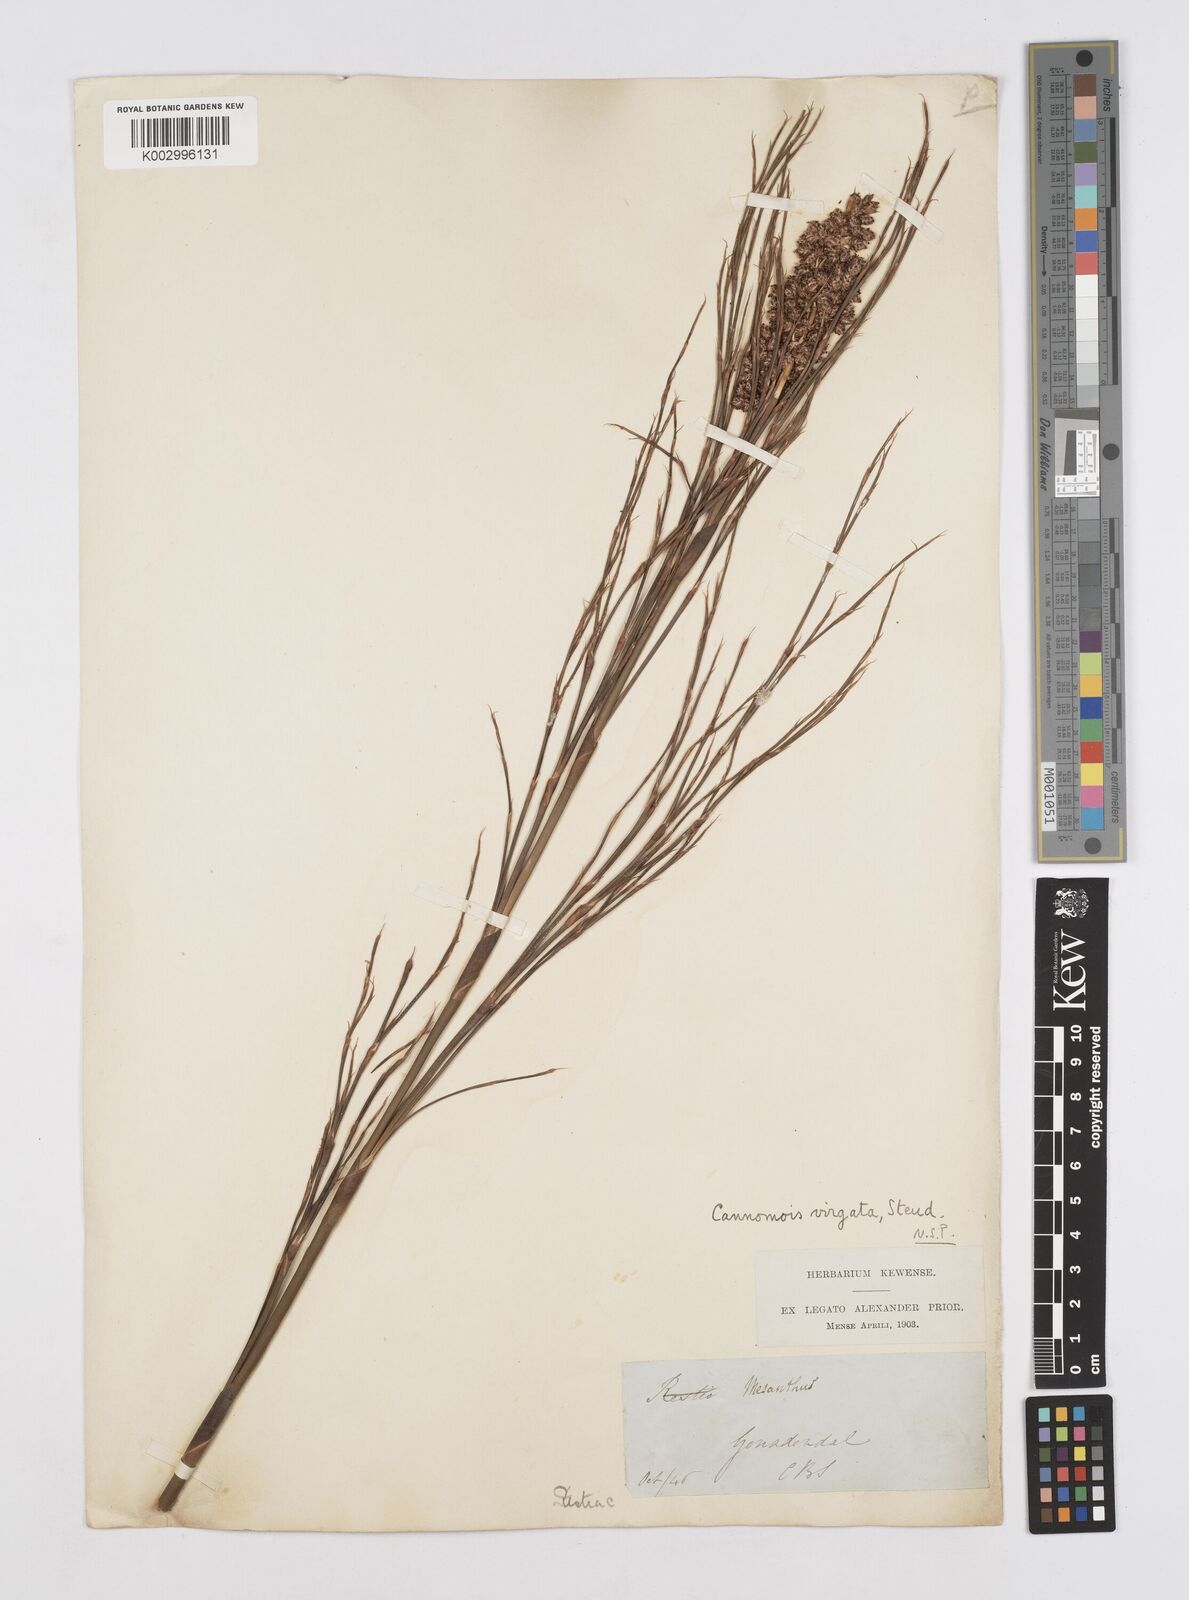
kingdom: Plantae
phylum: Tracheophyta
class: Liliopsida
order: Poales
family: Restionaceae
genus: Cannomois
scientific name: Cannomois virgata
